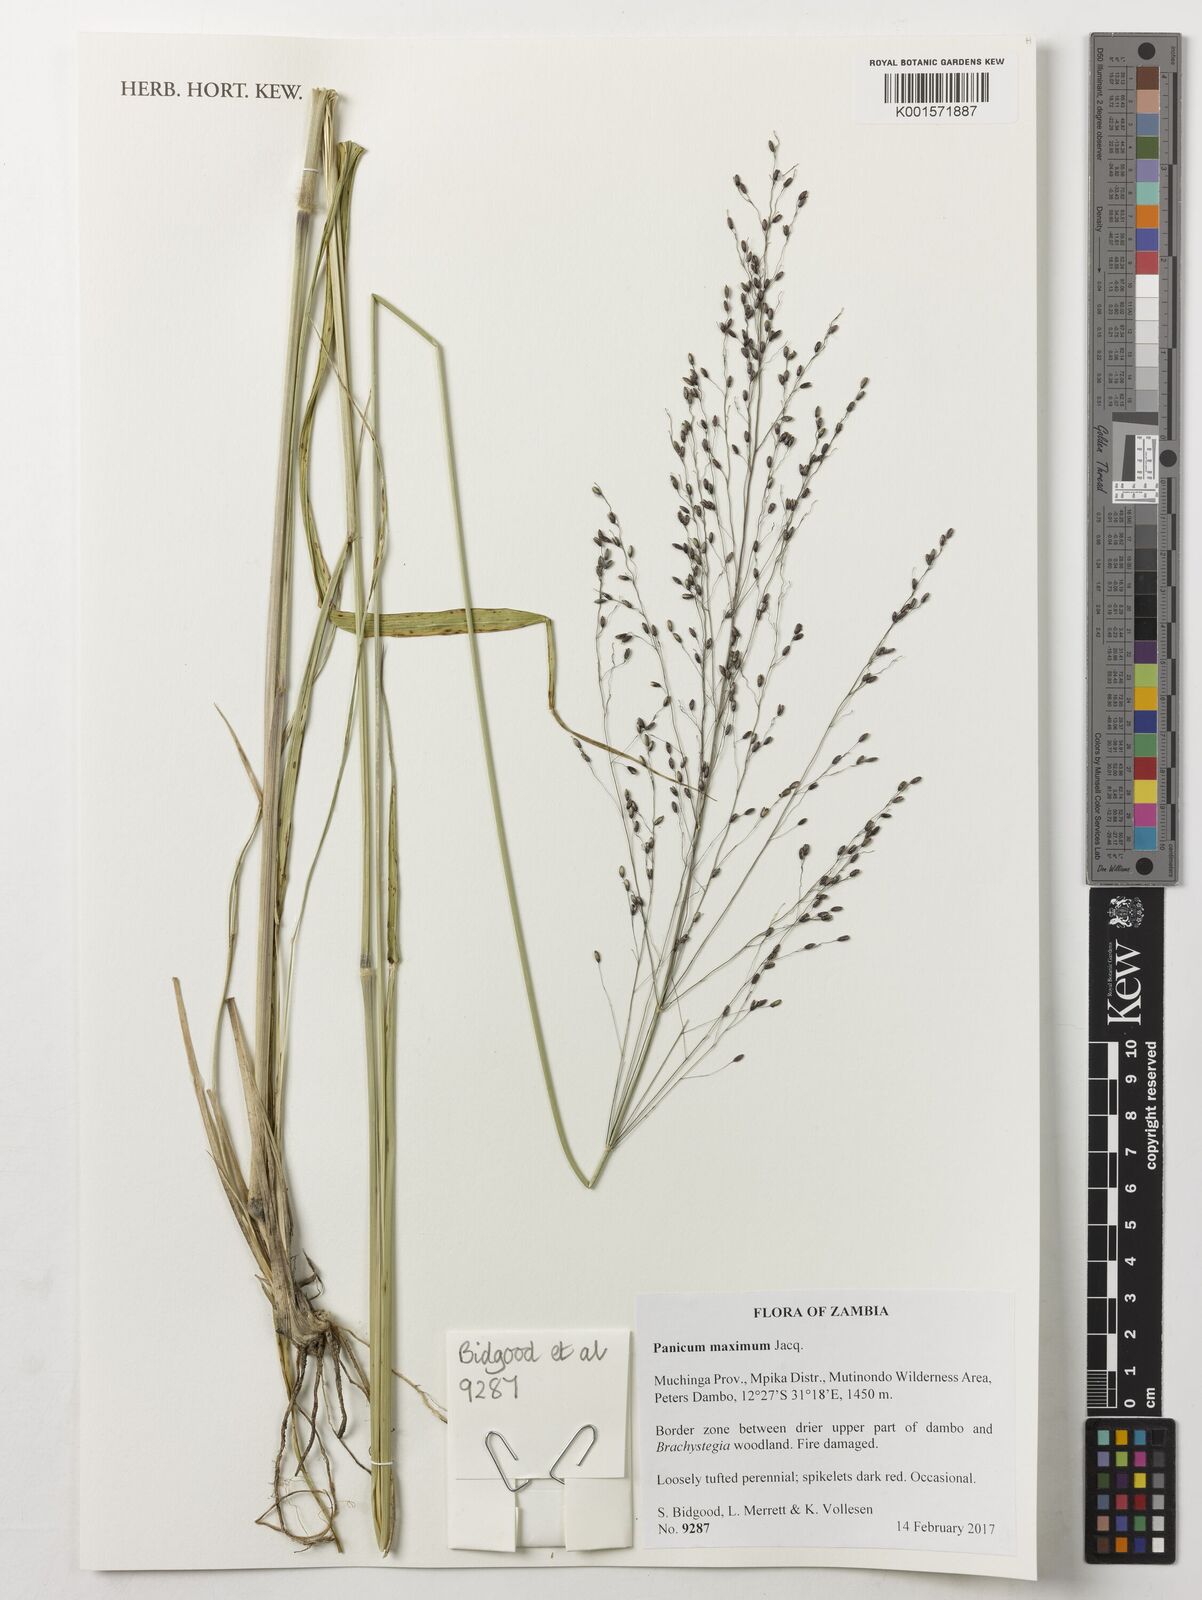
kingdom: Plantae
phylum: Tracheophyta
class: Liliopsida
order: Poales
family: Poaceae
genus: Megathyrsus
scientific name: Megathyrsus maximus
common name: Guineagrass
